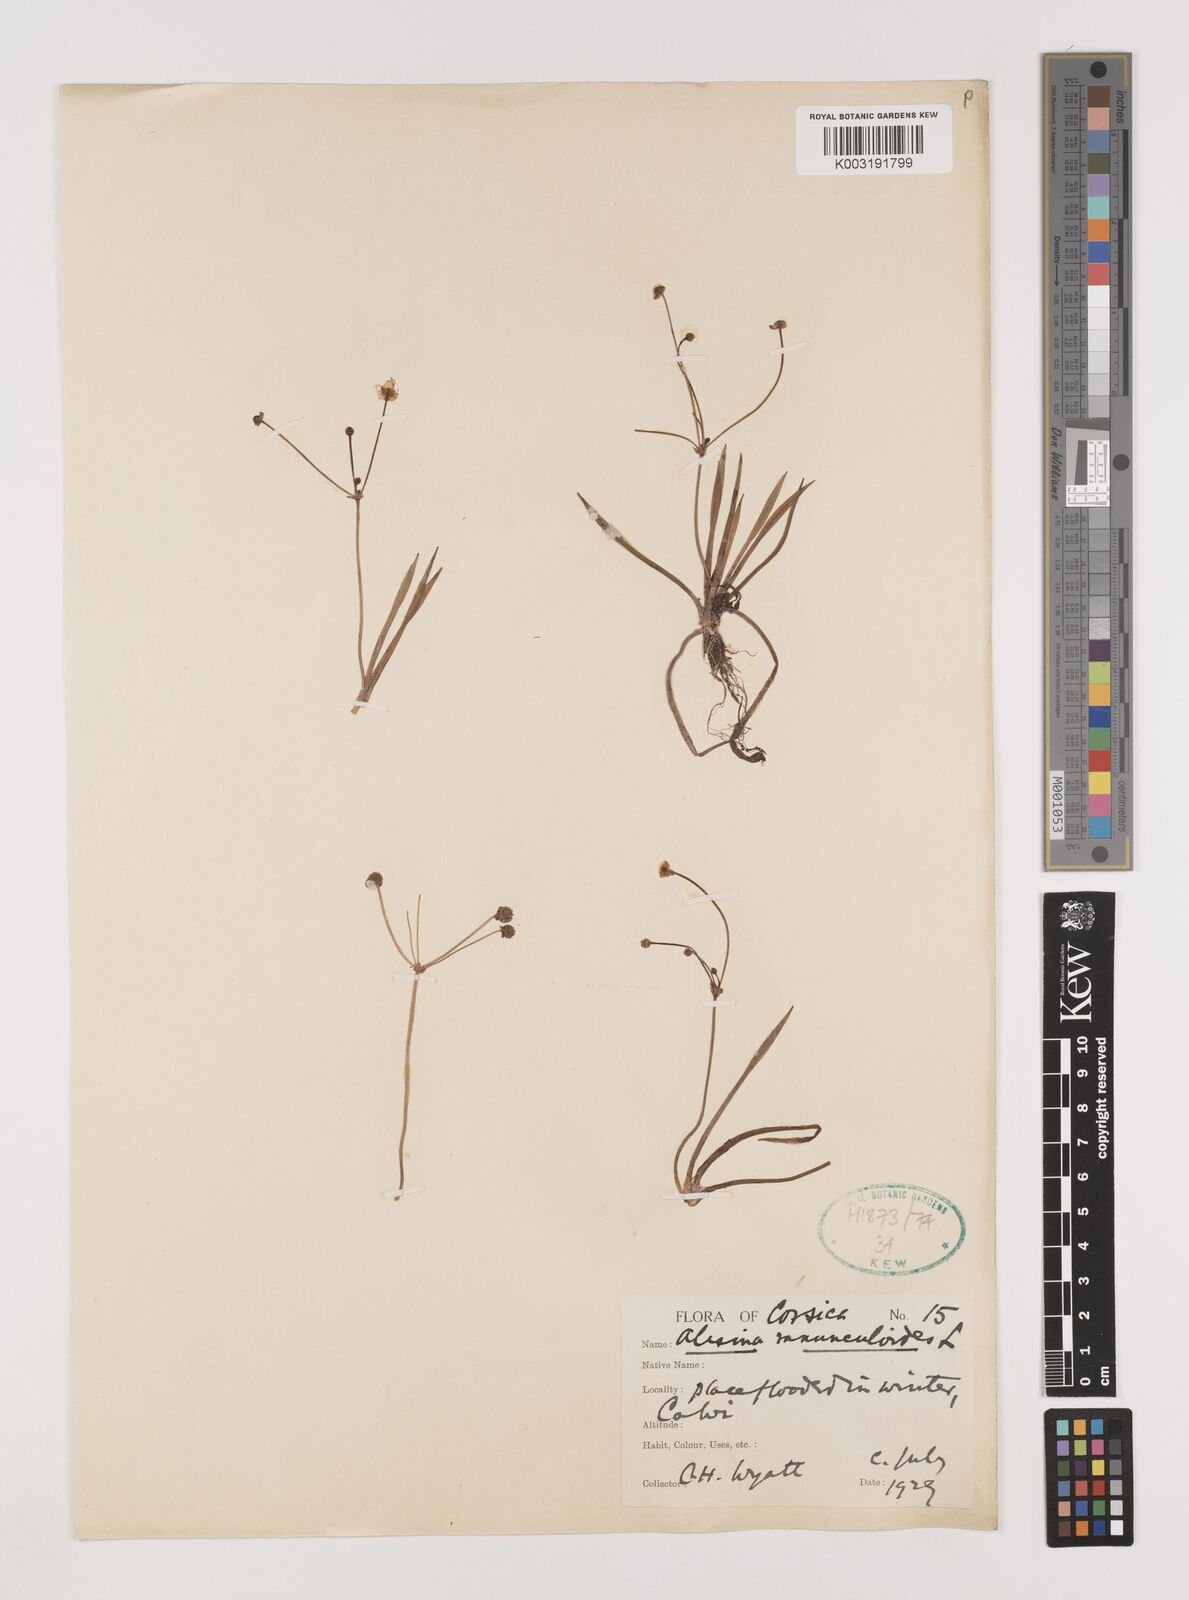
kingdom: Plantae
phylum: Tracheophyta
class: Liliopsida
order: Alismatales
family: Alismataceae
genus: Baldellia
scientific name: Baldellia ranunculoides
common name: Lesser water-plantain
